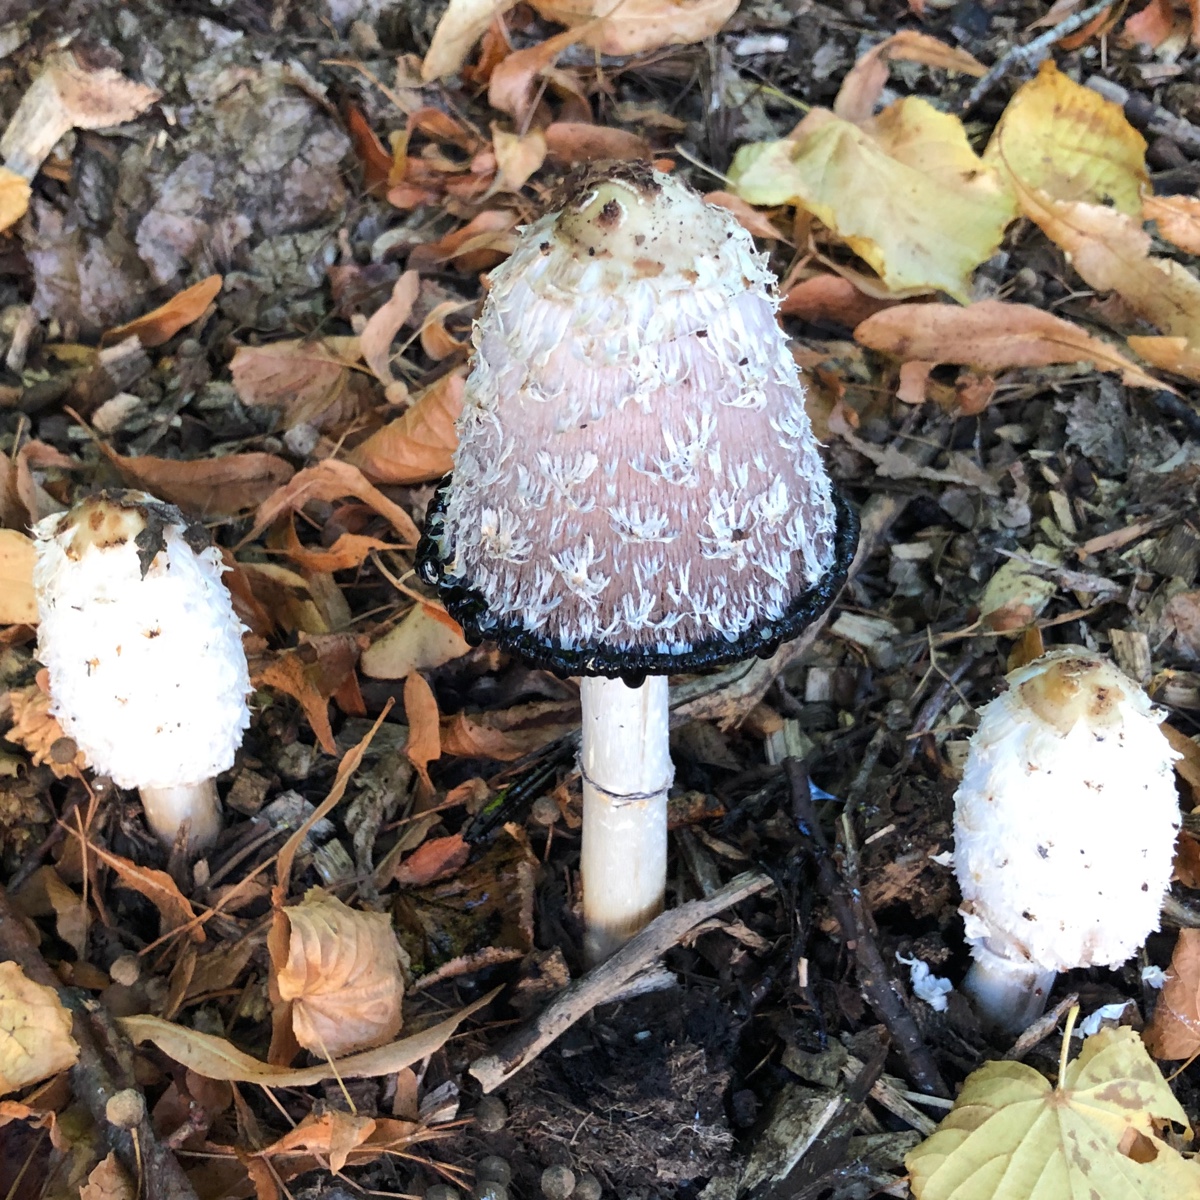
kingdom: Fungi
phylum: Basidiomycota
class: Agaricomycetes
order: Agaricales
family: Agaricaceae
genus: Coprinus
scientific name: Coprinus comatus
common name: stor parykhat
